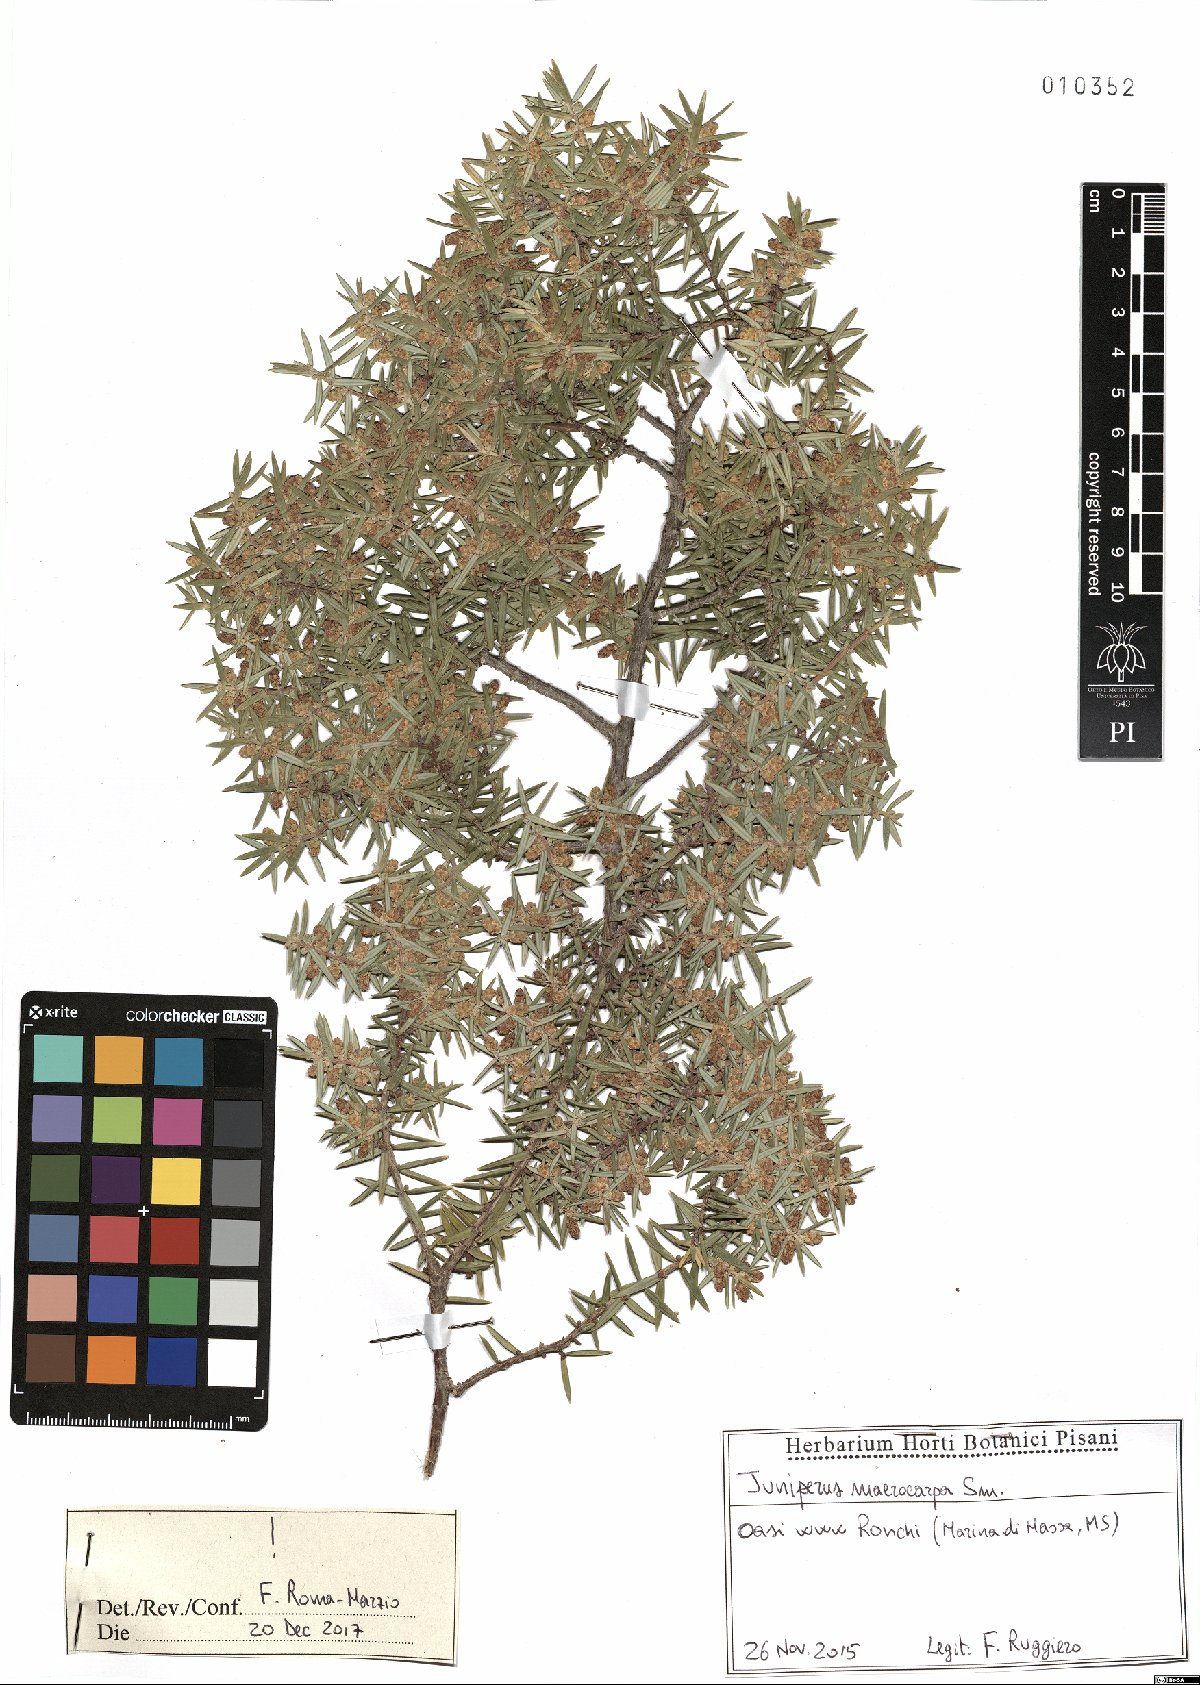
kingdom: Plantae
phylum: Tracheophyta
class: Pinopsida
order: Pinales
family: Cupressaceae
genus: Juniperus
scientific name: Juniperus oxycedrus
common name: Prickly juniper
